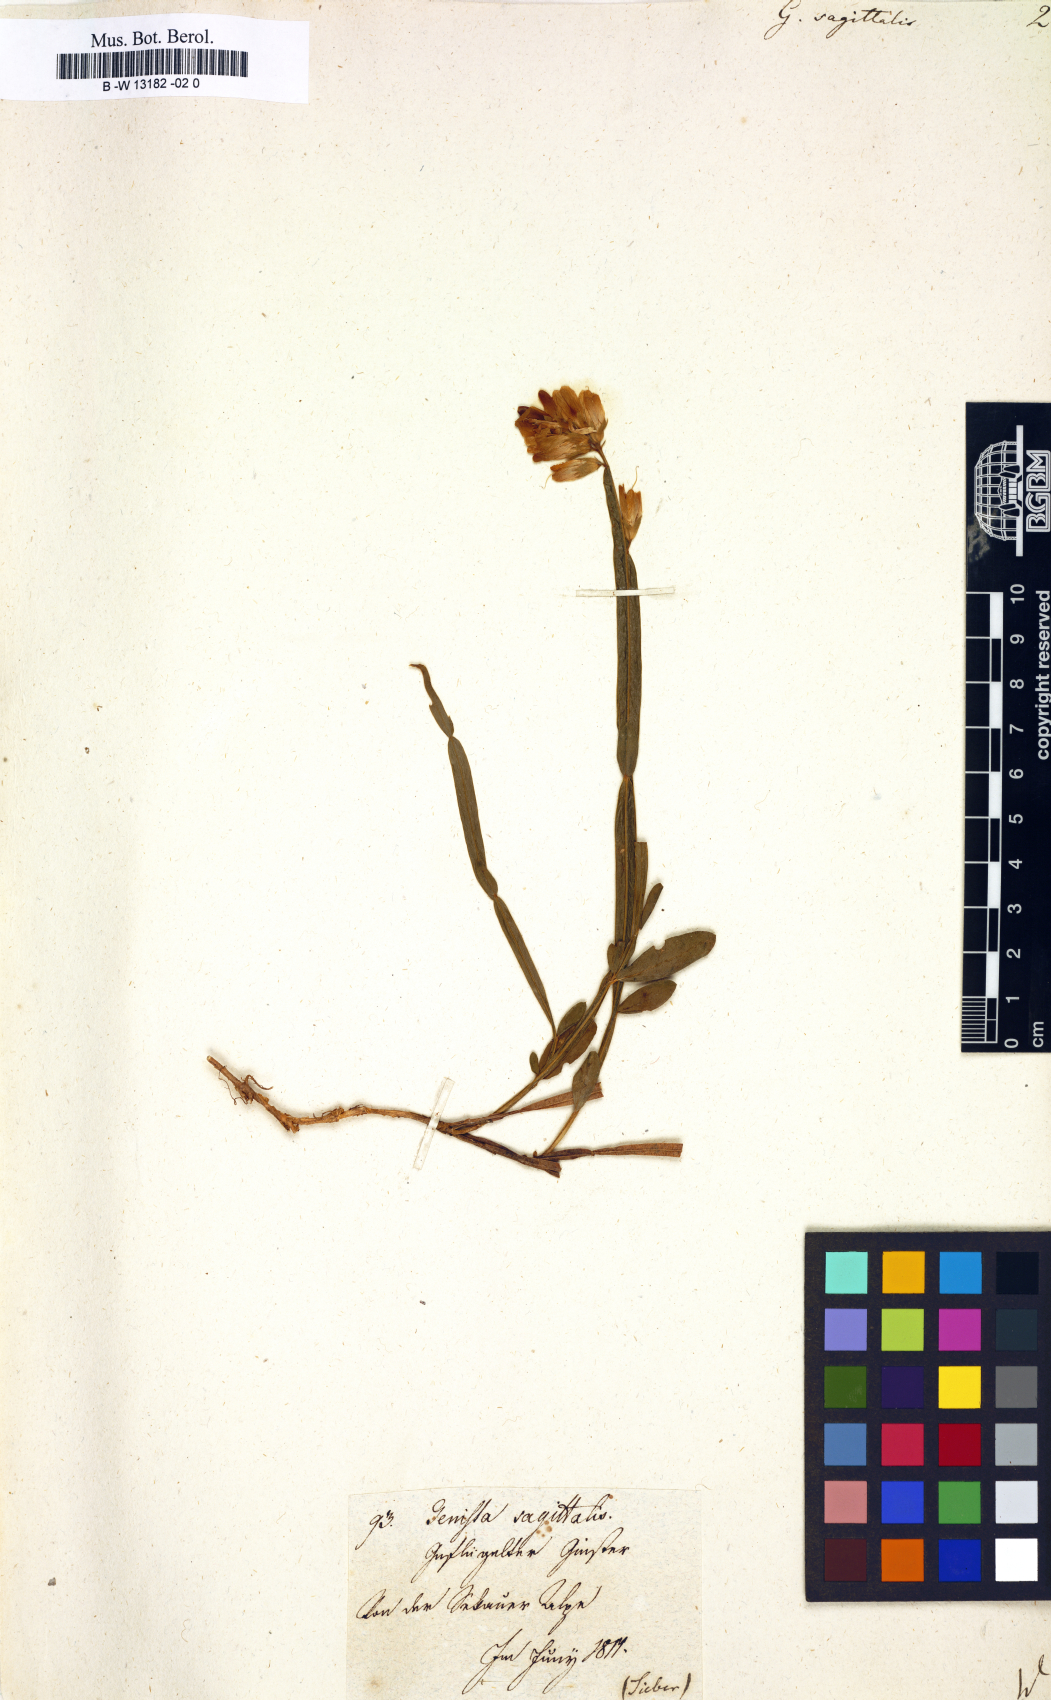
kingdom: Plantae
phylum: Tracheophyta
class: Magnoliopsida
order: Fabales
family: Fabaceae
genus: Genista
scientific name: Genista sagittalis
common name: Winged greenweed
